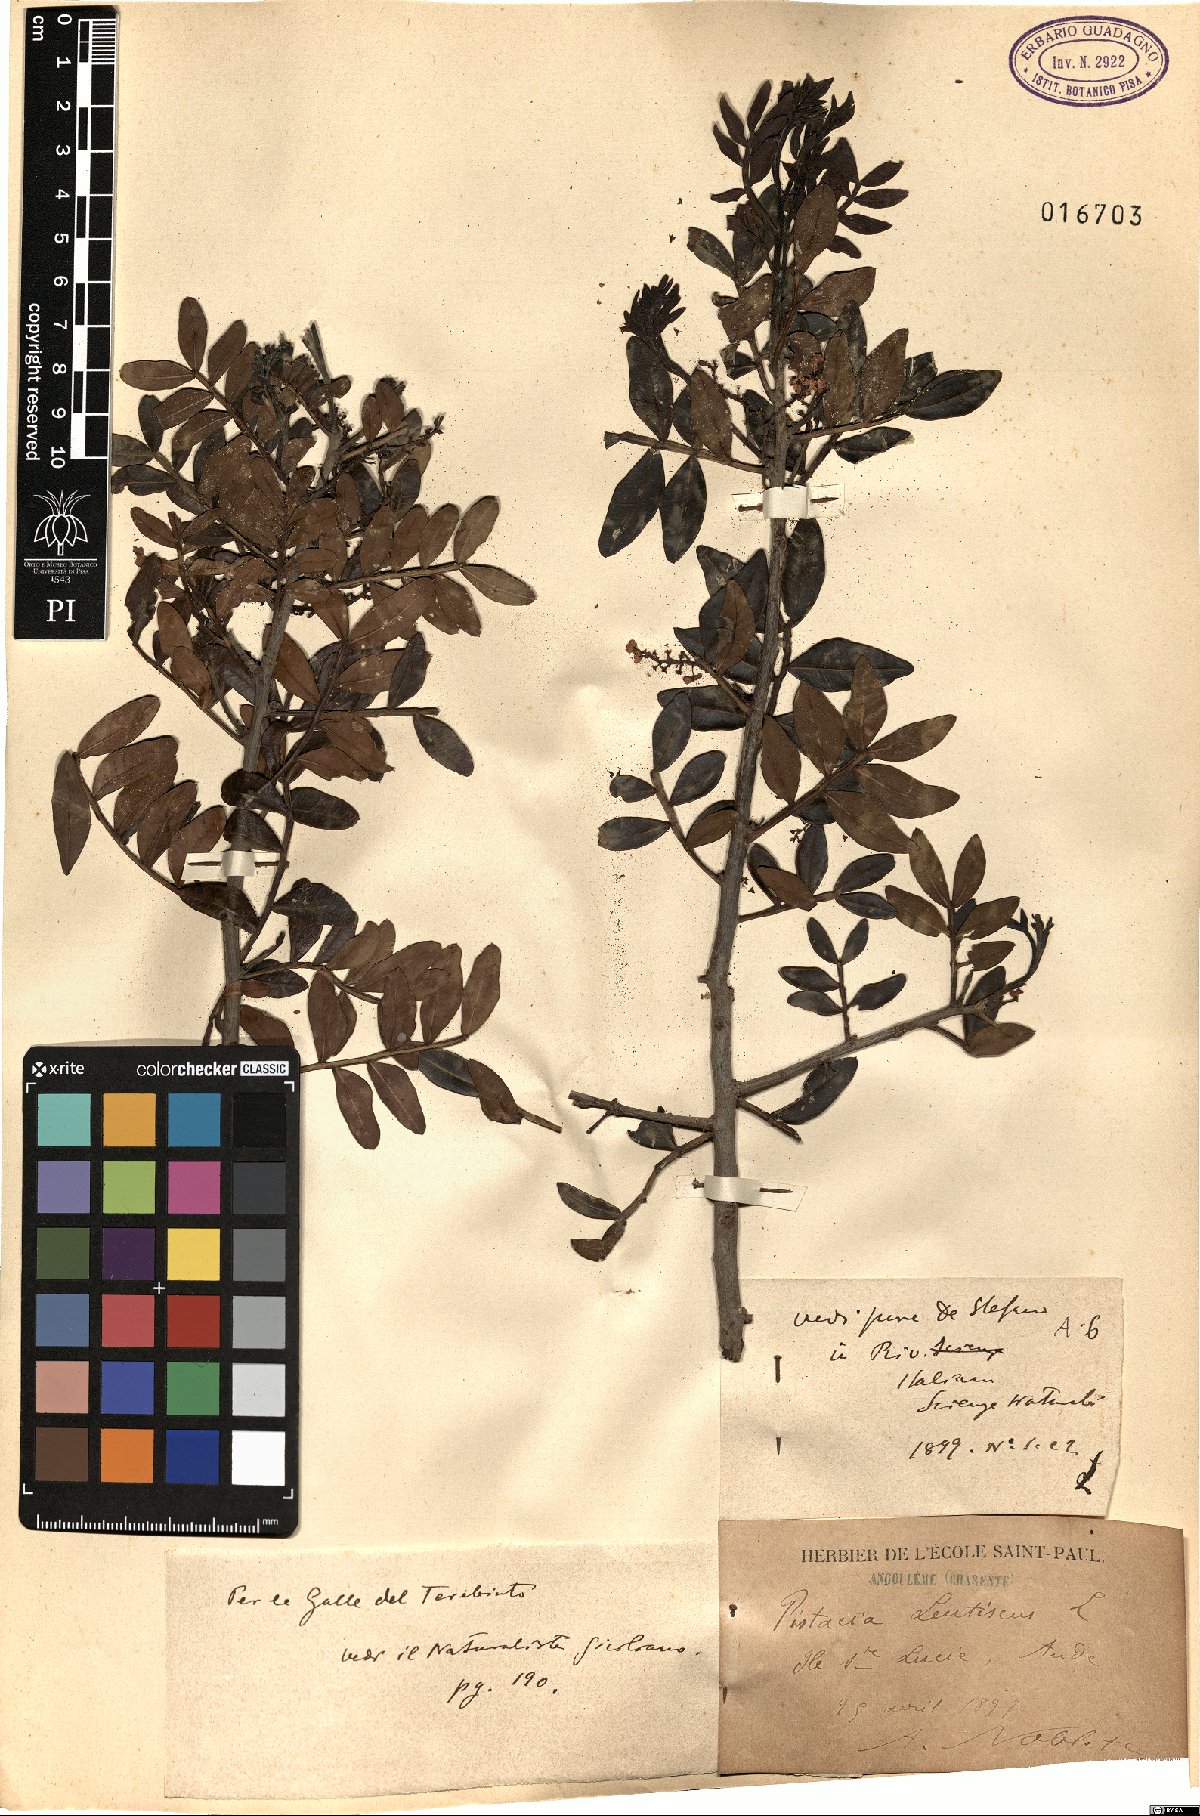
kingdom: Plantae
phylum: Tracheophyta
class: Magnoliopsida
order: Sapindales
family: Anacardiaceae
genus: Pistacia
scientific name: Pistacia lentiscus
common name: Lentisk
